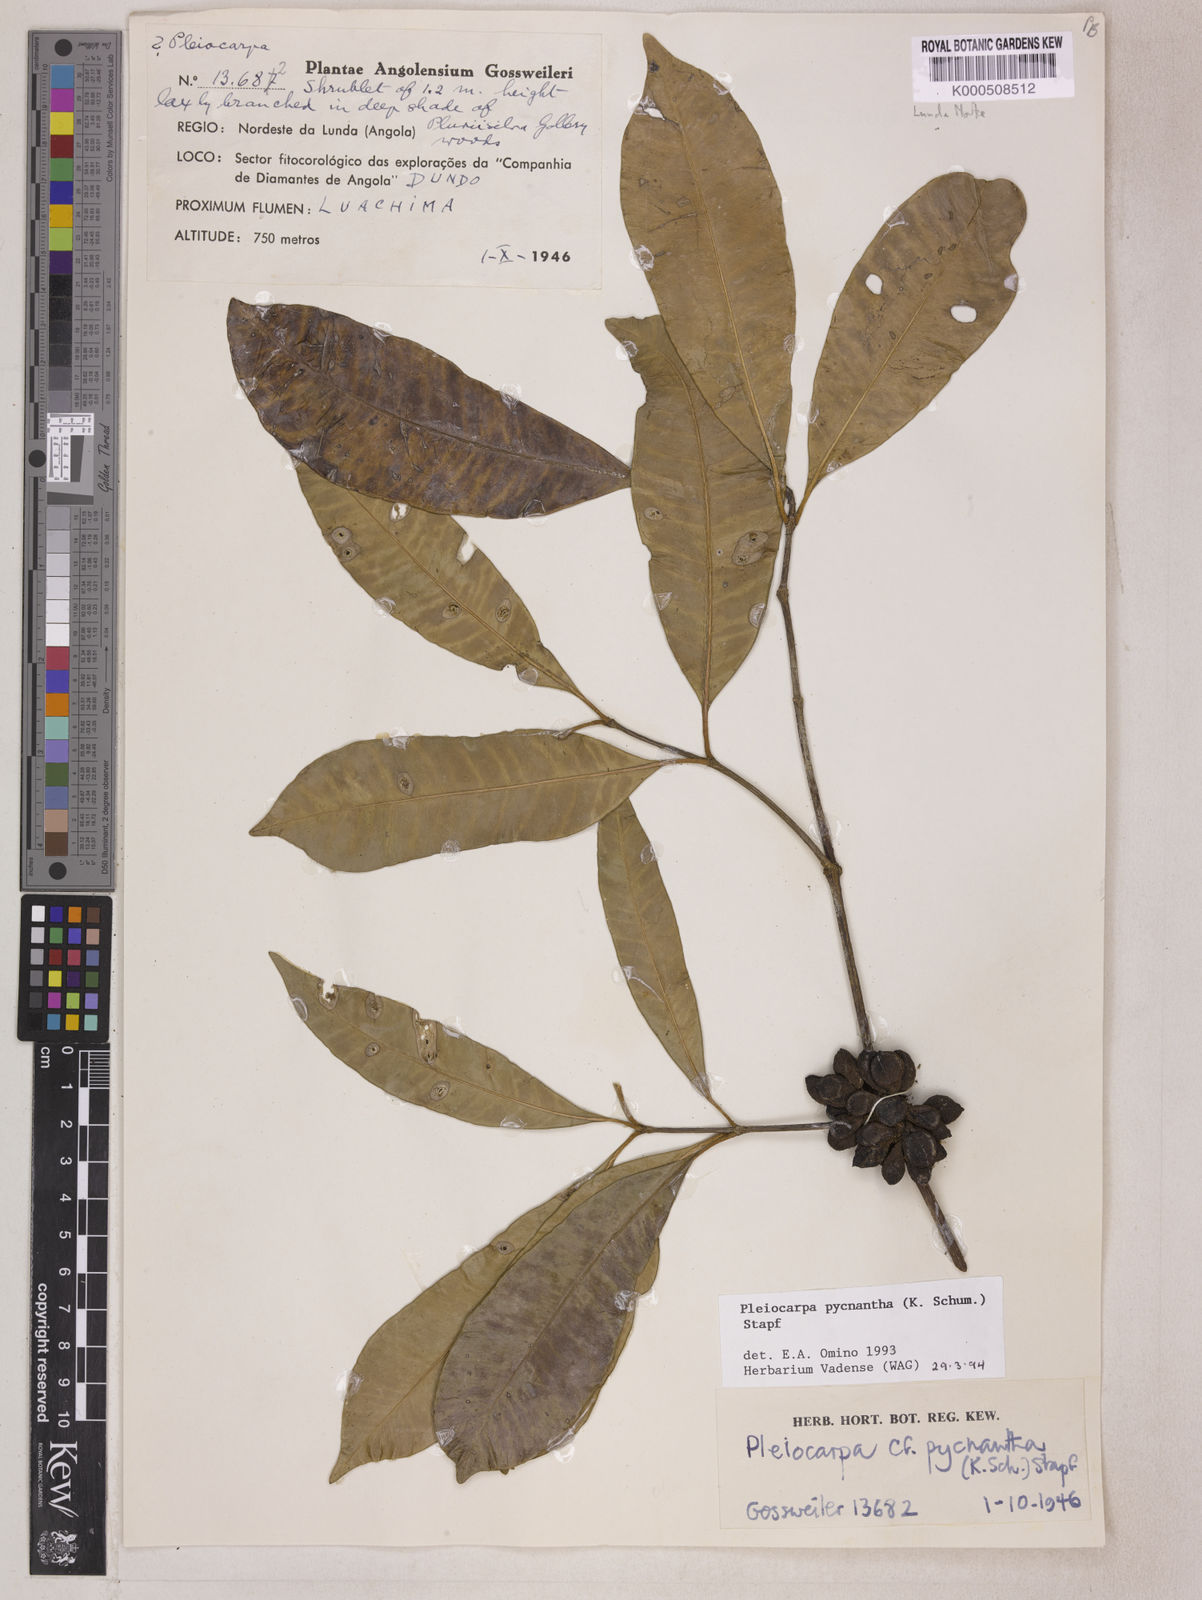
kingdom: Plantae
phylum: Tracheophyta
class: Magnoliopsida
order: Gentianales
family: Apocynaceae
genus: Pleiocarpa
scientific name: Pleiocarpa pycnantha
